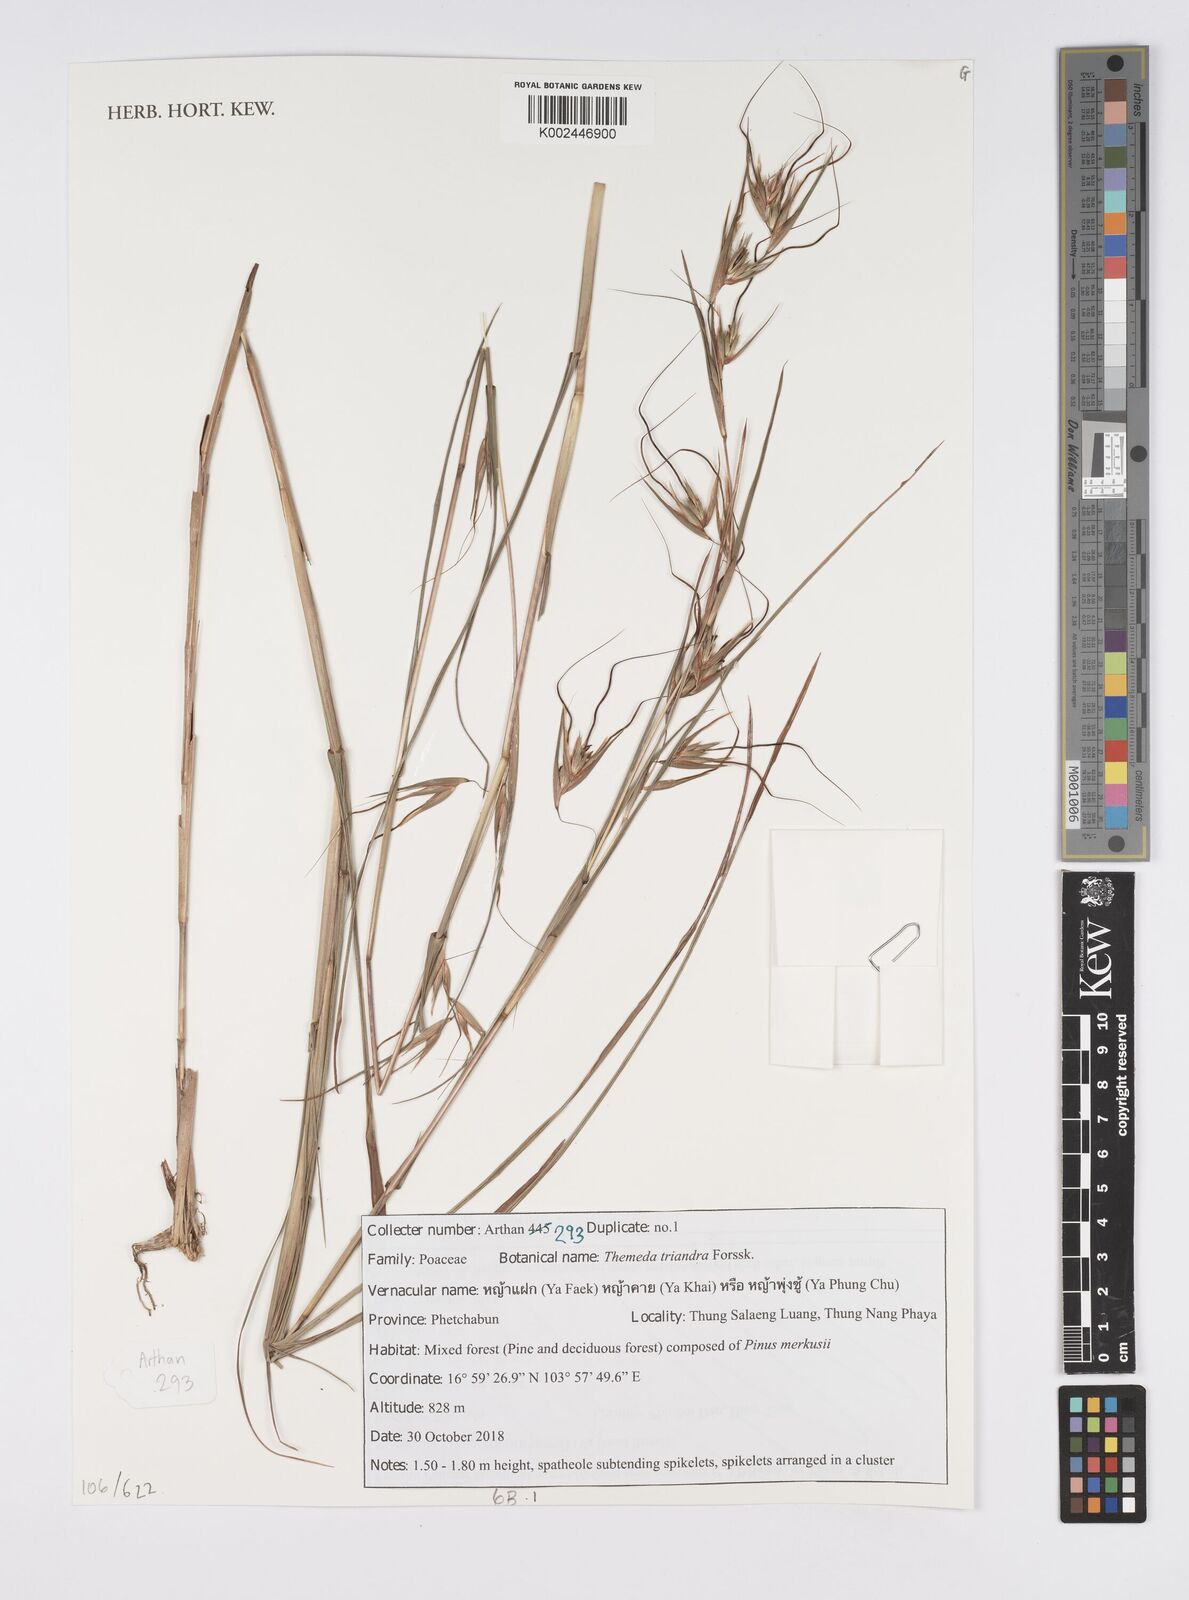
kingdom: Plantae
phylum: Tracheophyta
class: Liliopsida
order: Poales
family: Poaceae
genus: Themeda
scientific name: Themeda triandra
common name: Kangaroo grass
